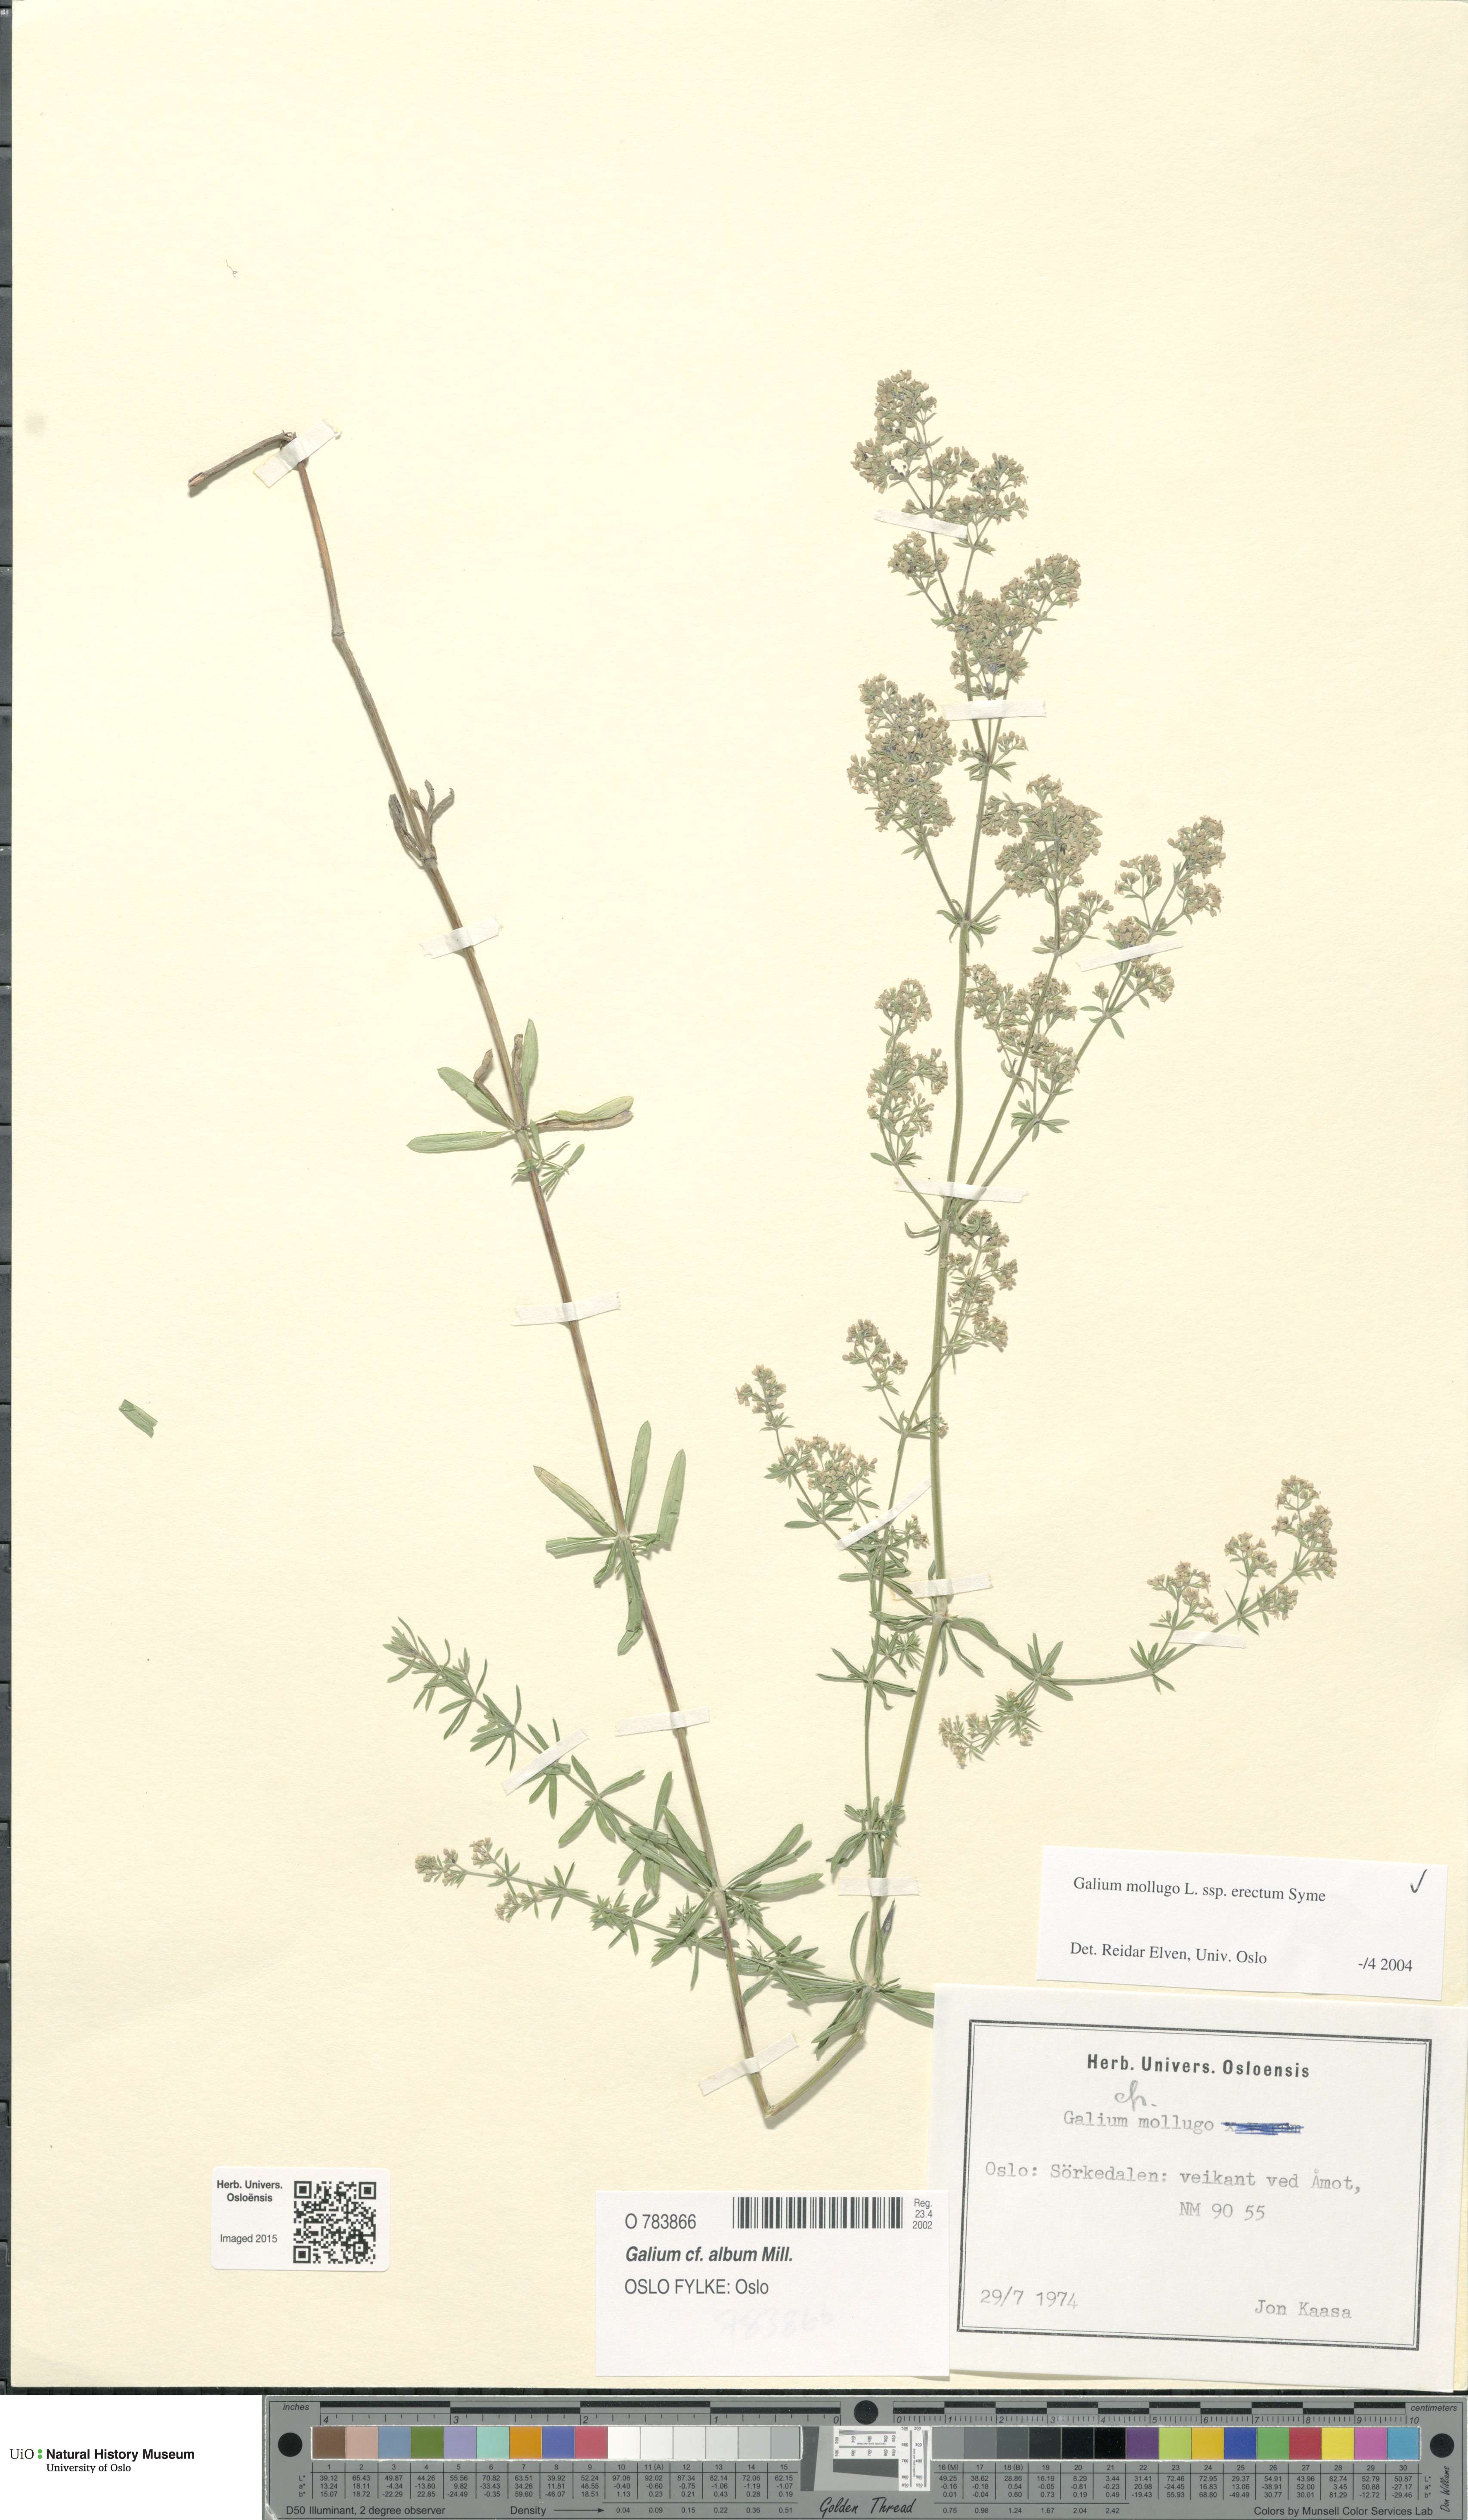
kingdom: Plantae
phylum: Tracheophyta
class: Magnoliopsida
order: Gentianales
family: Rubiaceae
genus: Galium
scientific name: Galium album
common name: White bedstraw
